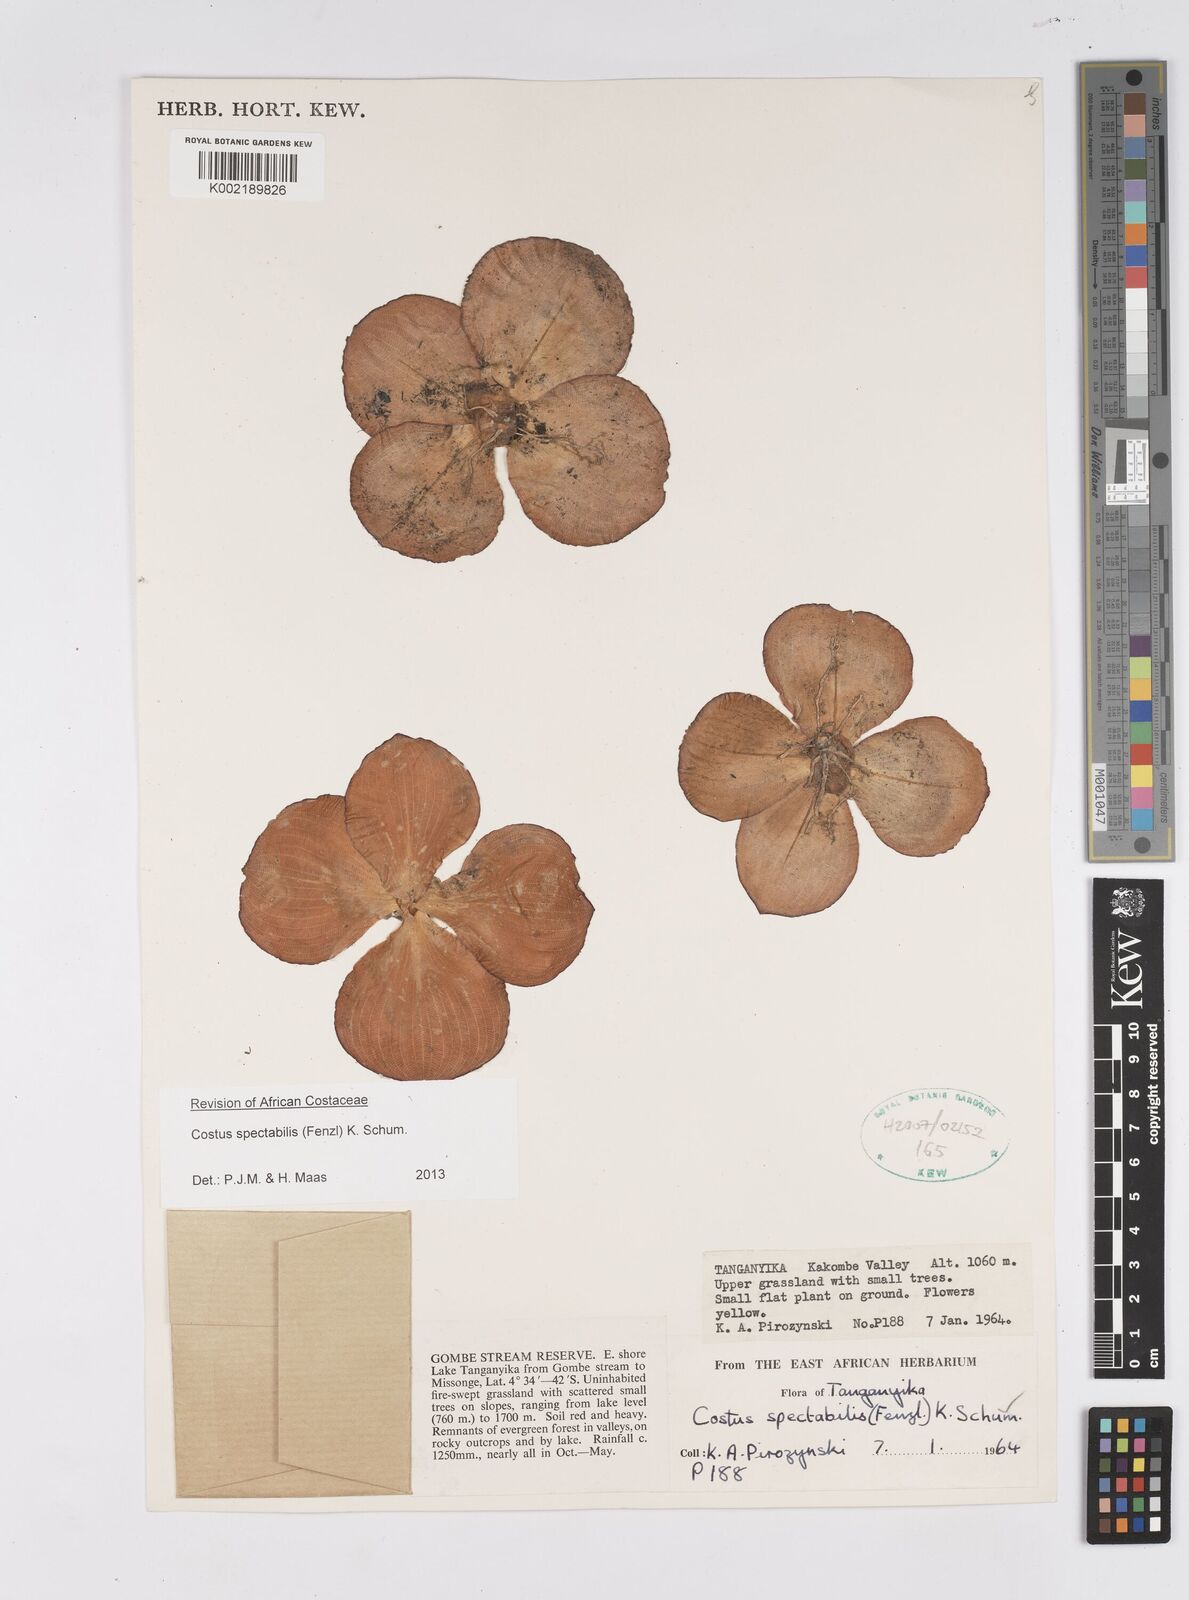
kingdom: Plantae
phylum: Tracheophyta
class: Liliopsida
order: Zingiberales
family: Costaceae
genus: Costus
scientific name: Costus spectabilis
